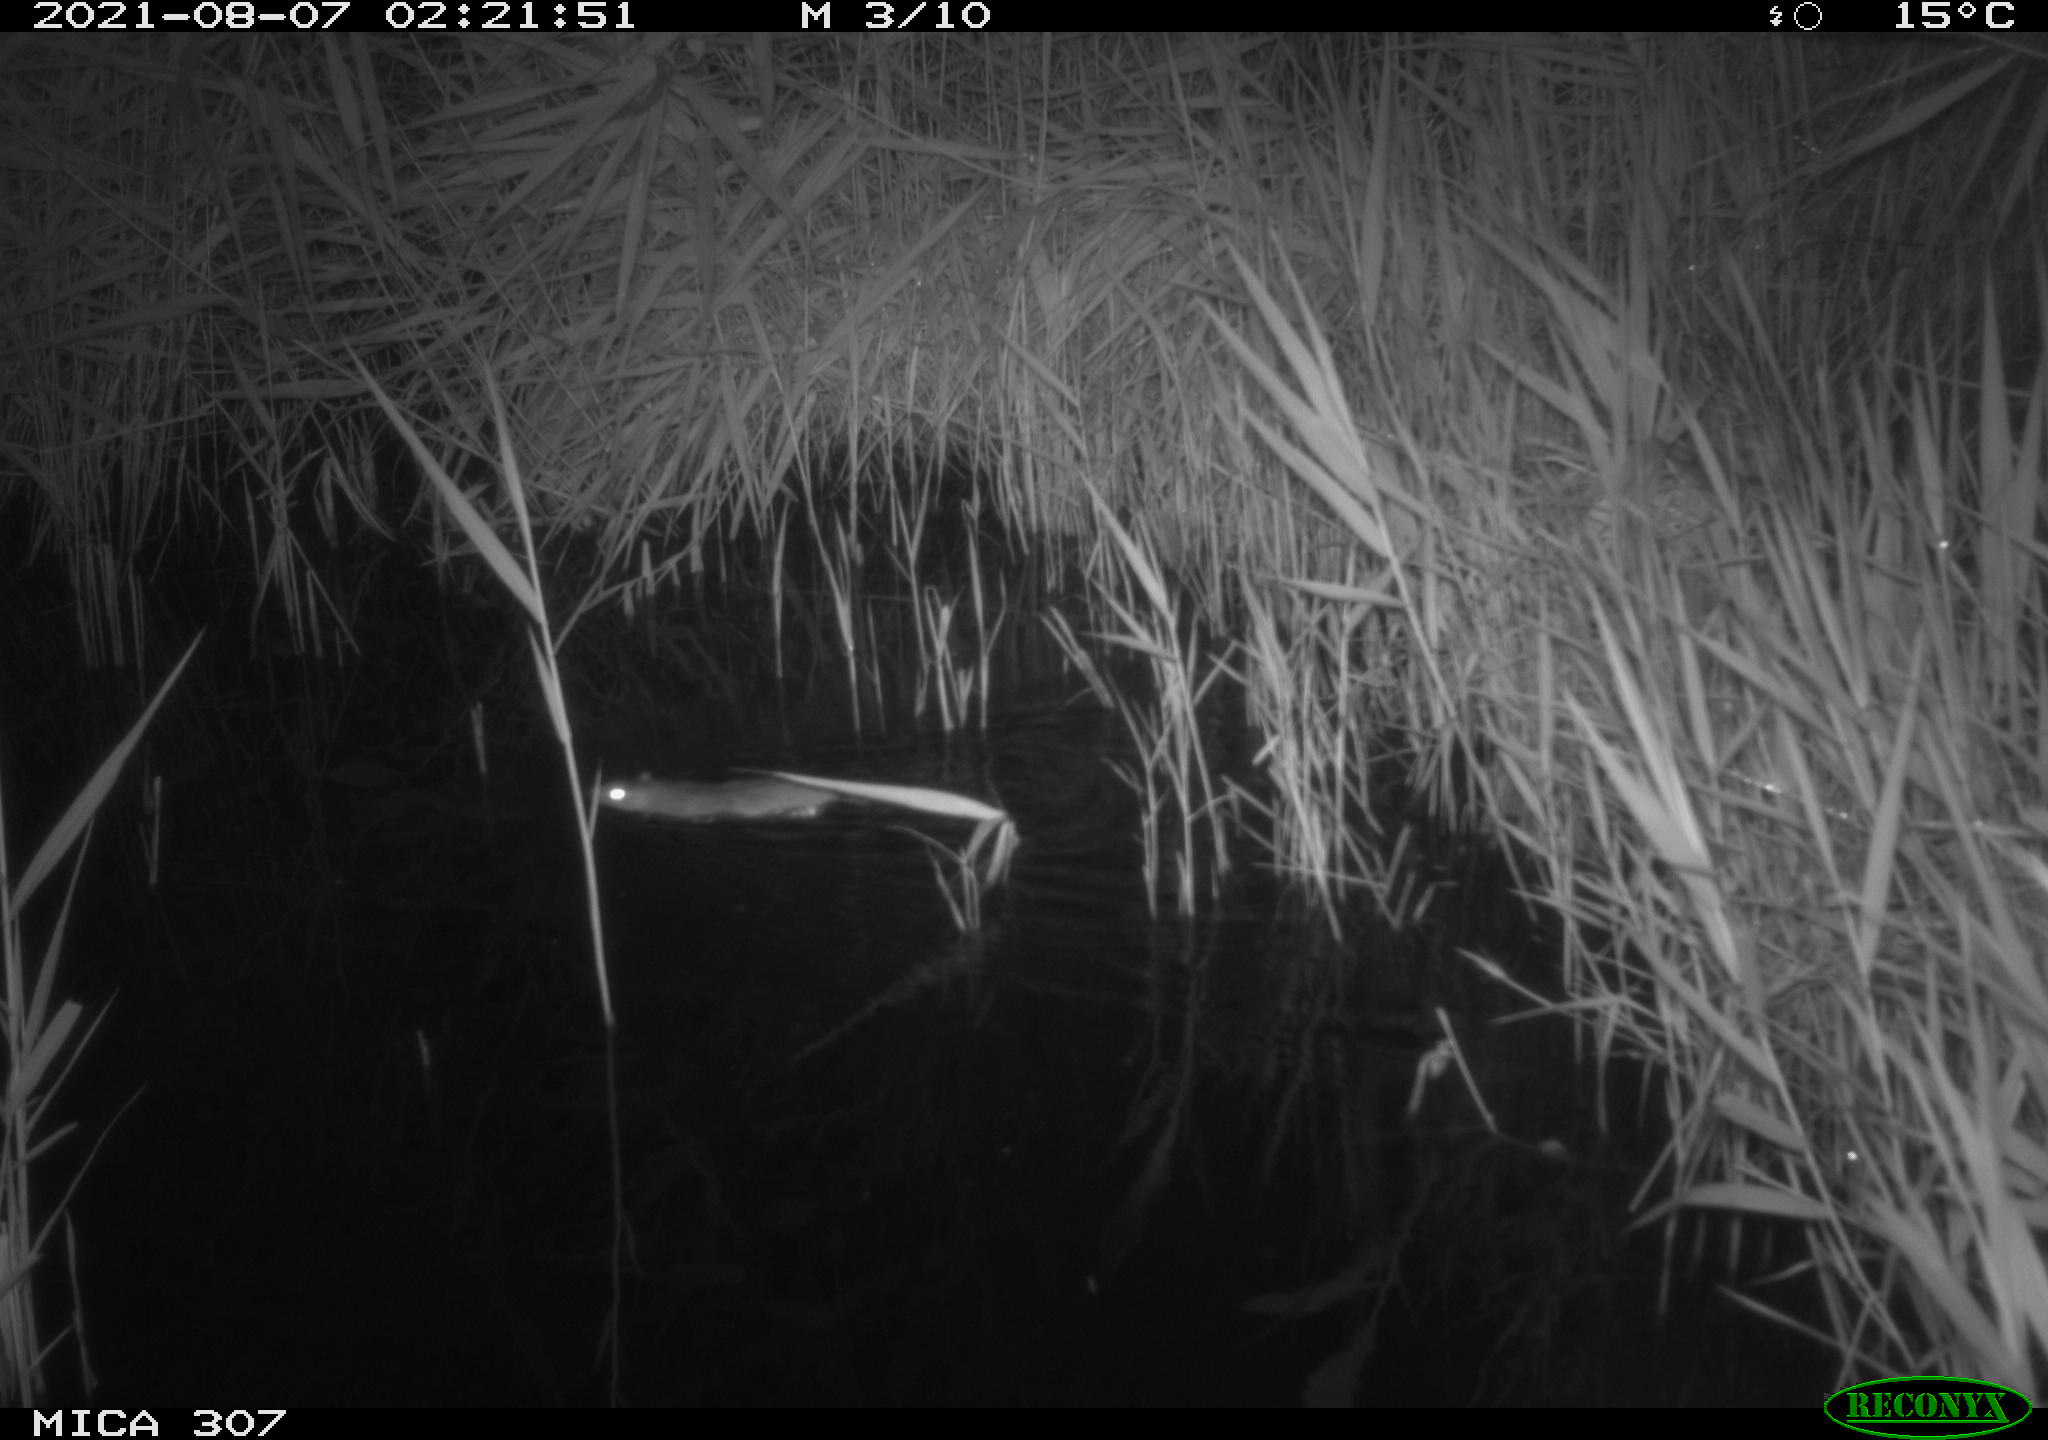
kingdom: Animalia
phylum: Chordata
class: Mammalia
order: Rodentia
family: Muridae
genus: Rattus
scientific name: Rattus norvegicus
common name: Brown rat
